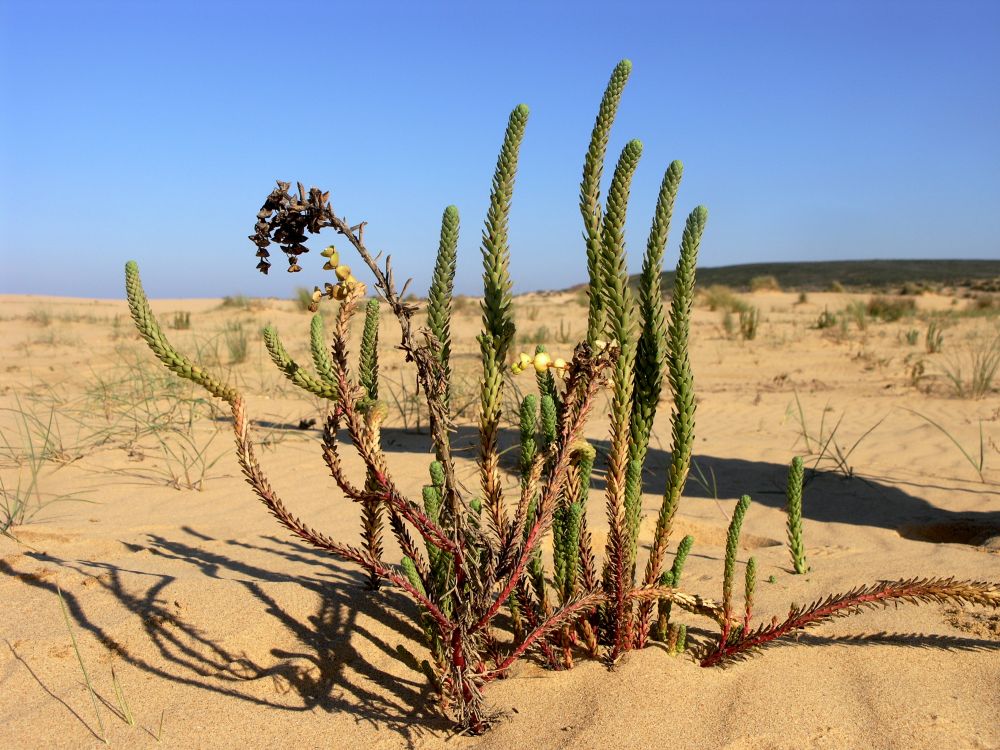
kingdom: Plantae
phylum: Tracheophyta
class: Magnoliopsida
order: Malpighiales
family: Euphorbiaceae
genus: Euphorbia
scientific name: Euphorbia paralias
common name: Sea spurge
